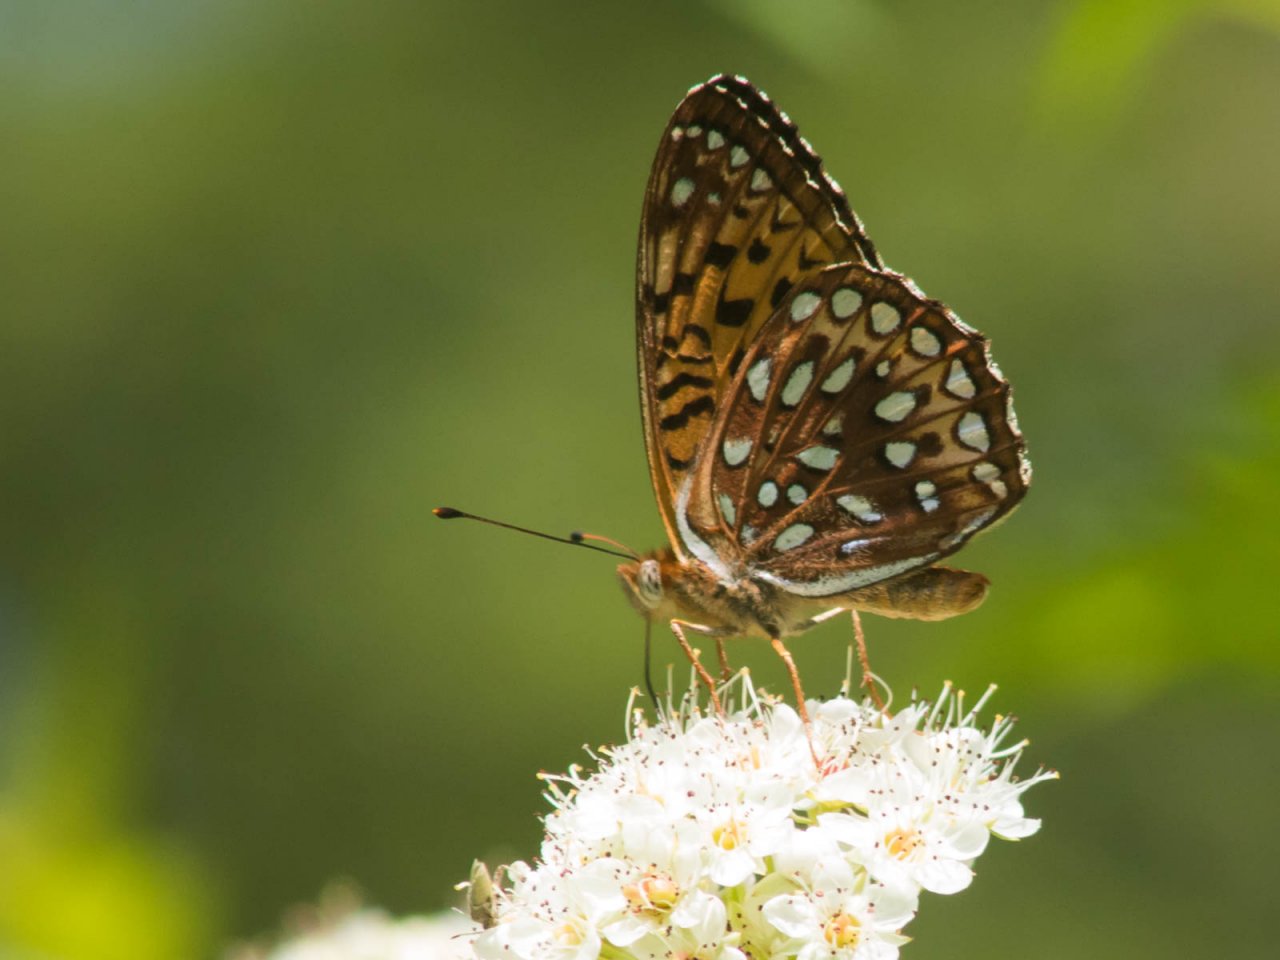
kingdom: Animalia
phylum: Arthropoda
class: Insecta
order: Lepidoptera
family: Nymphalidae
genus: Speyeria
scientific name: Speyeria atlantis
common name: Atlantis Fritillary
